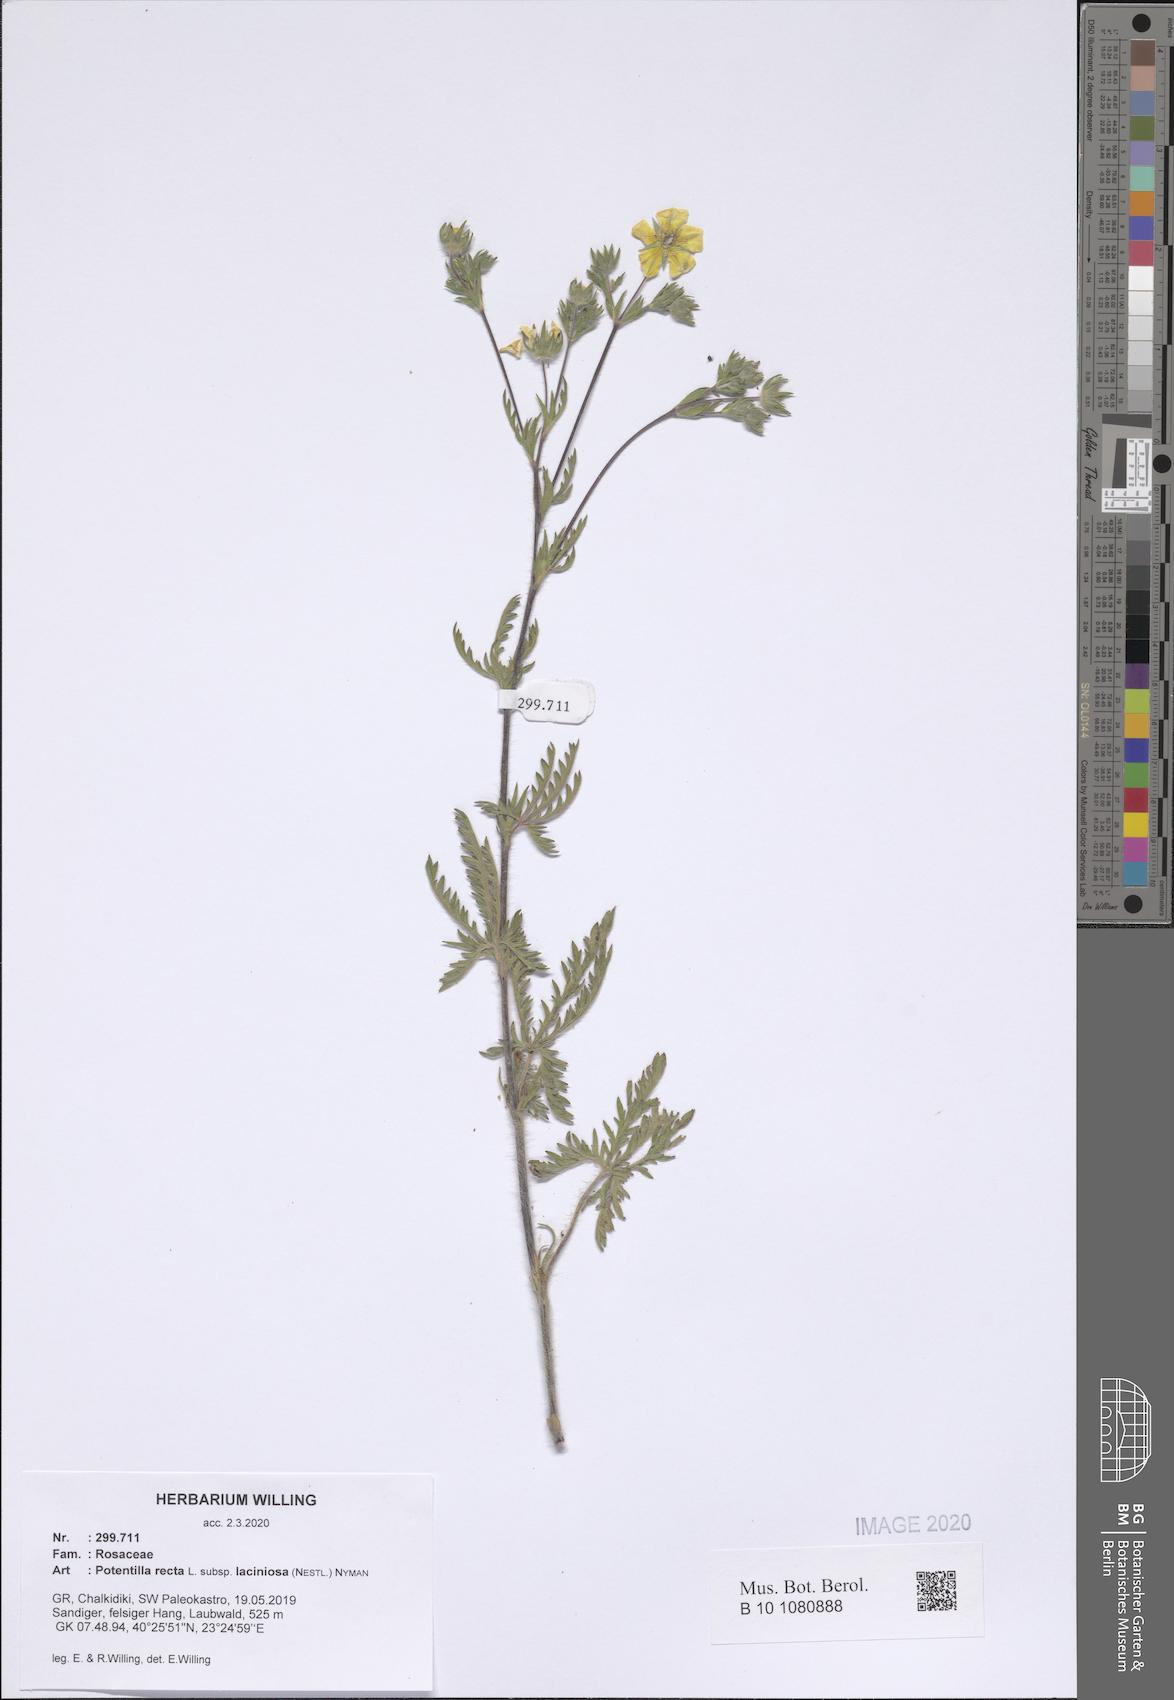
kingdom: Plantae
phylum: Tracheophyta
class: Magnoliopsida
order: Rosales
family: Rosaceae
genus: Potentilla
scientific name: Potentilla recta
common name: Sulphur cinquefoil
